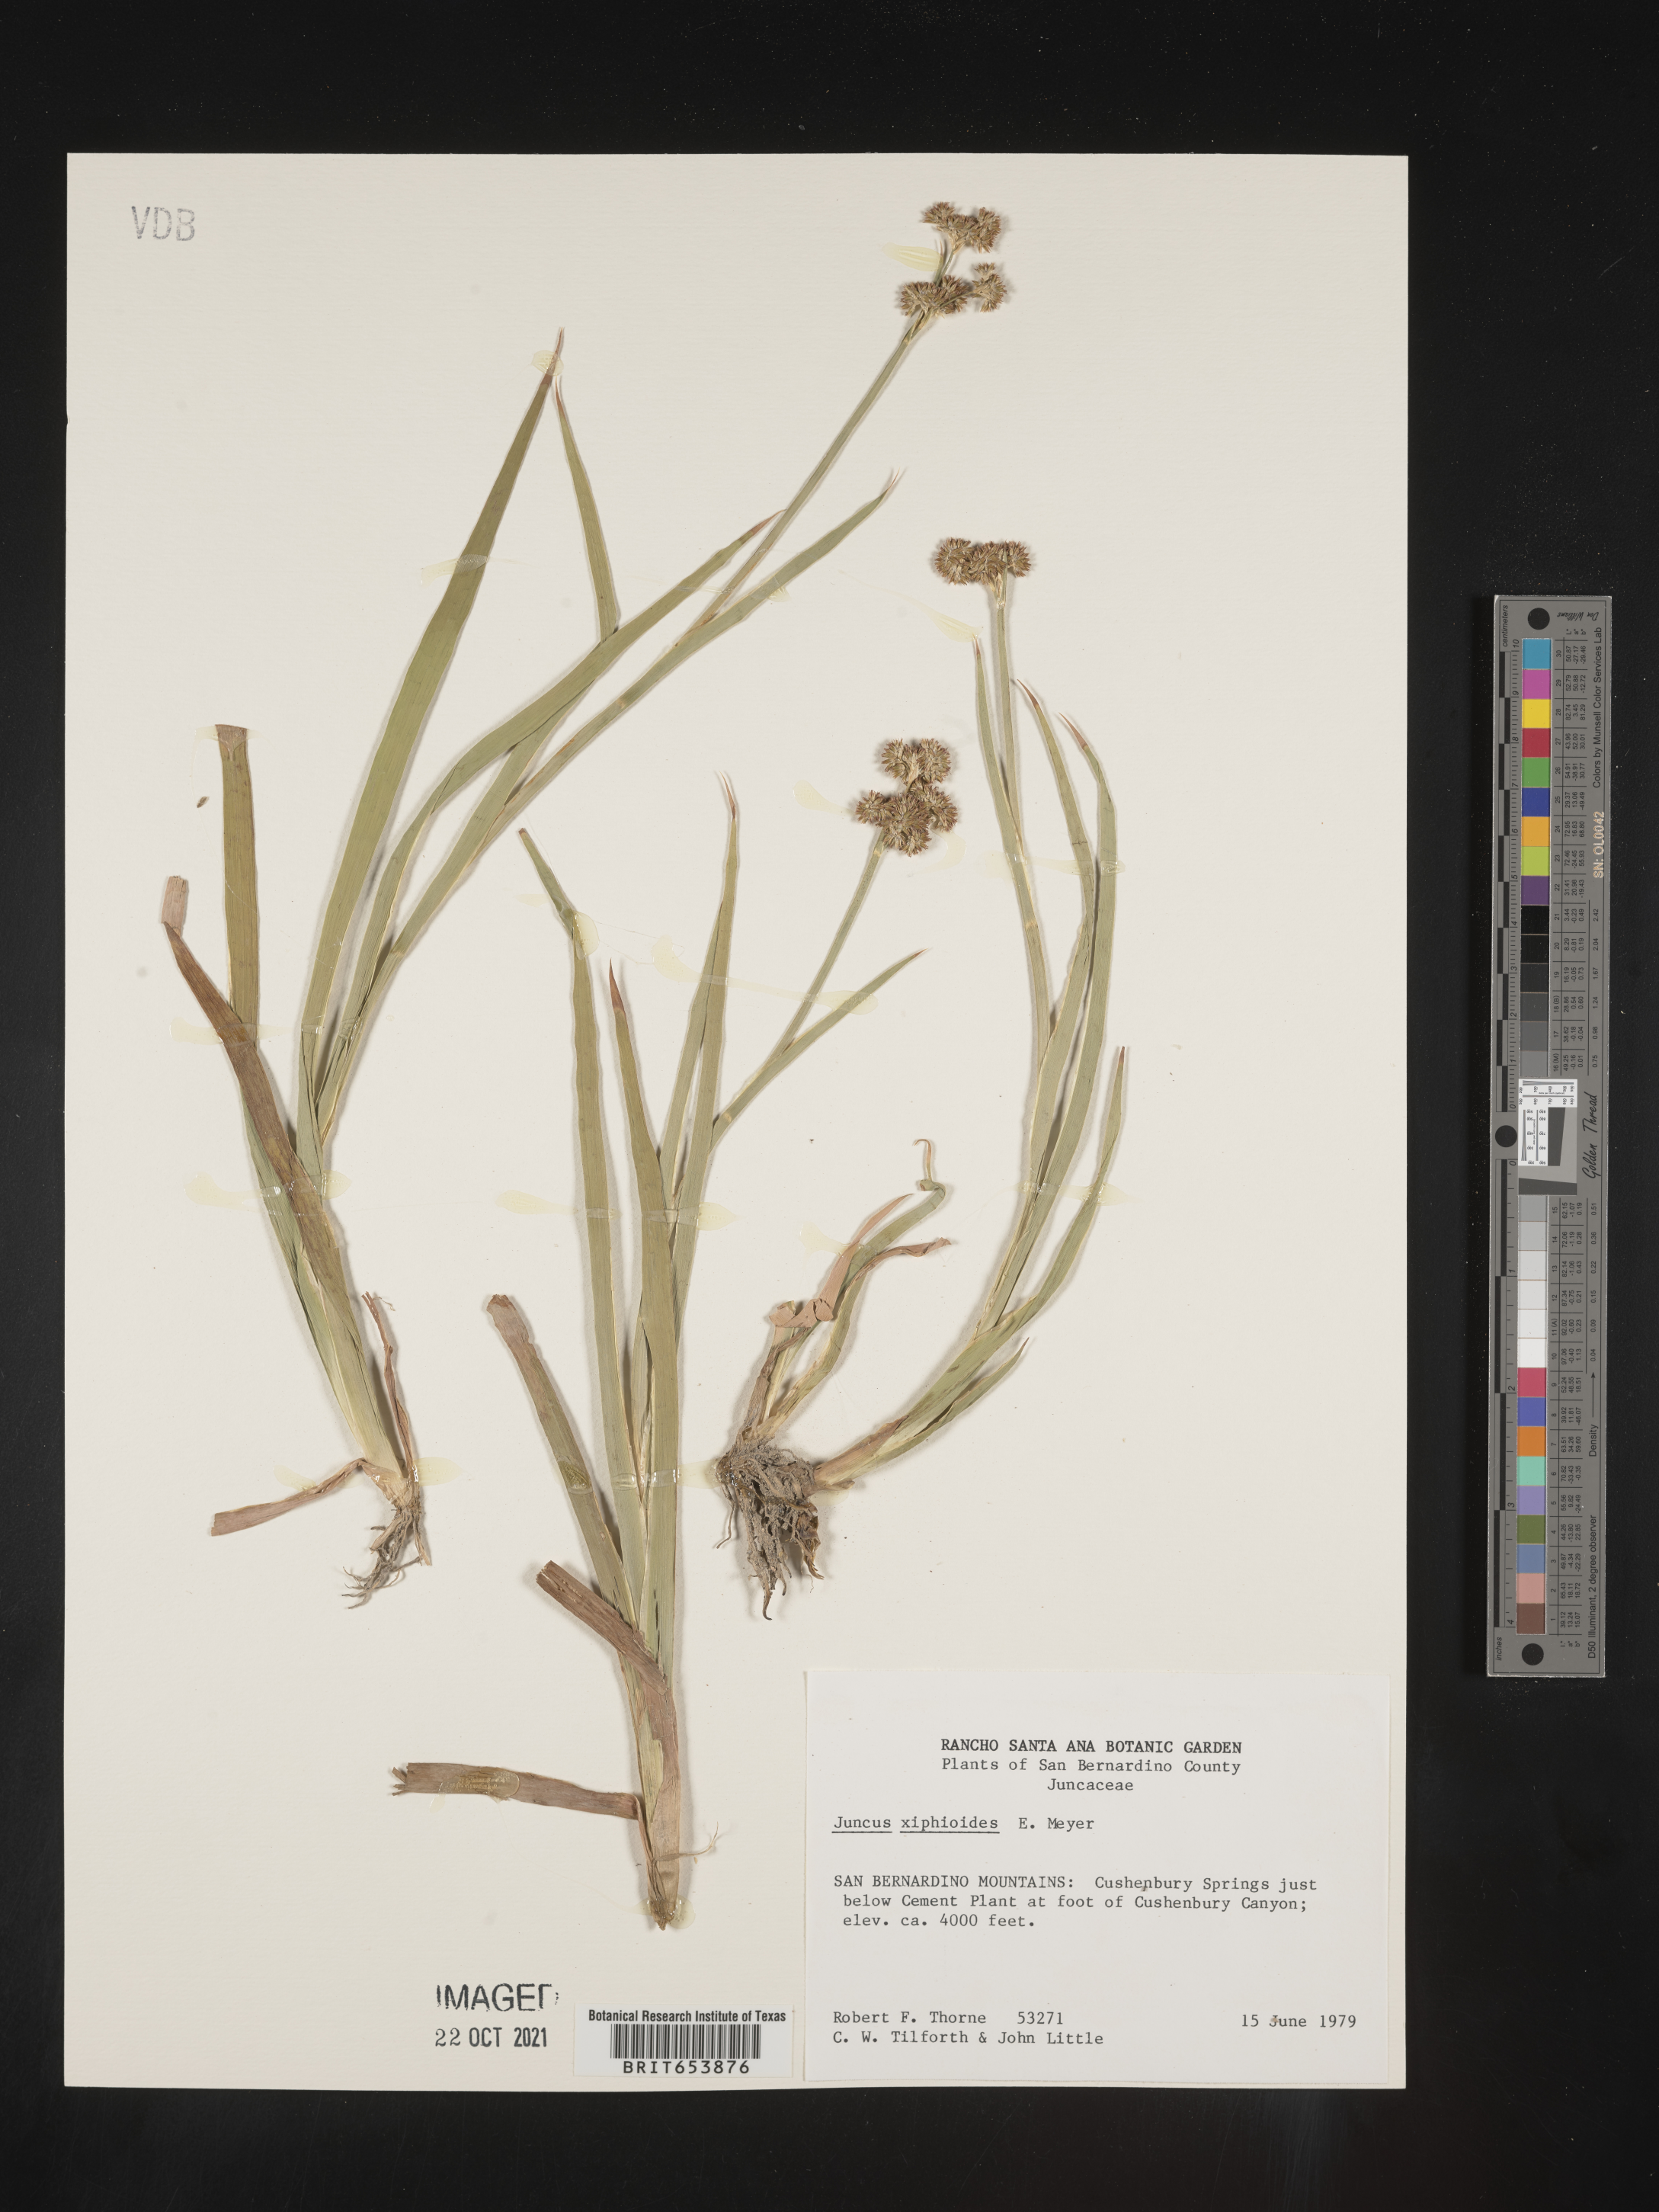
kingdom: Plantae
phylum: Tracheophyta
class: Liliopsida
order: Poales
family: Juncaceae
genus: Juncus
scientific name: Juncus xiphioides
